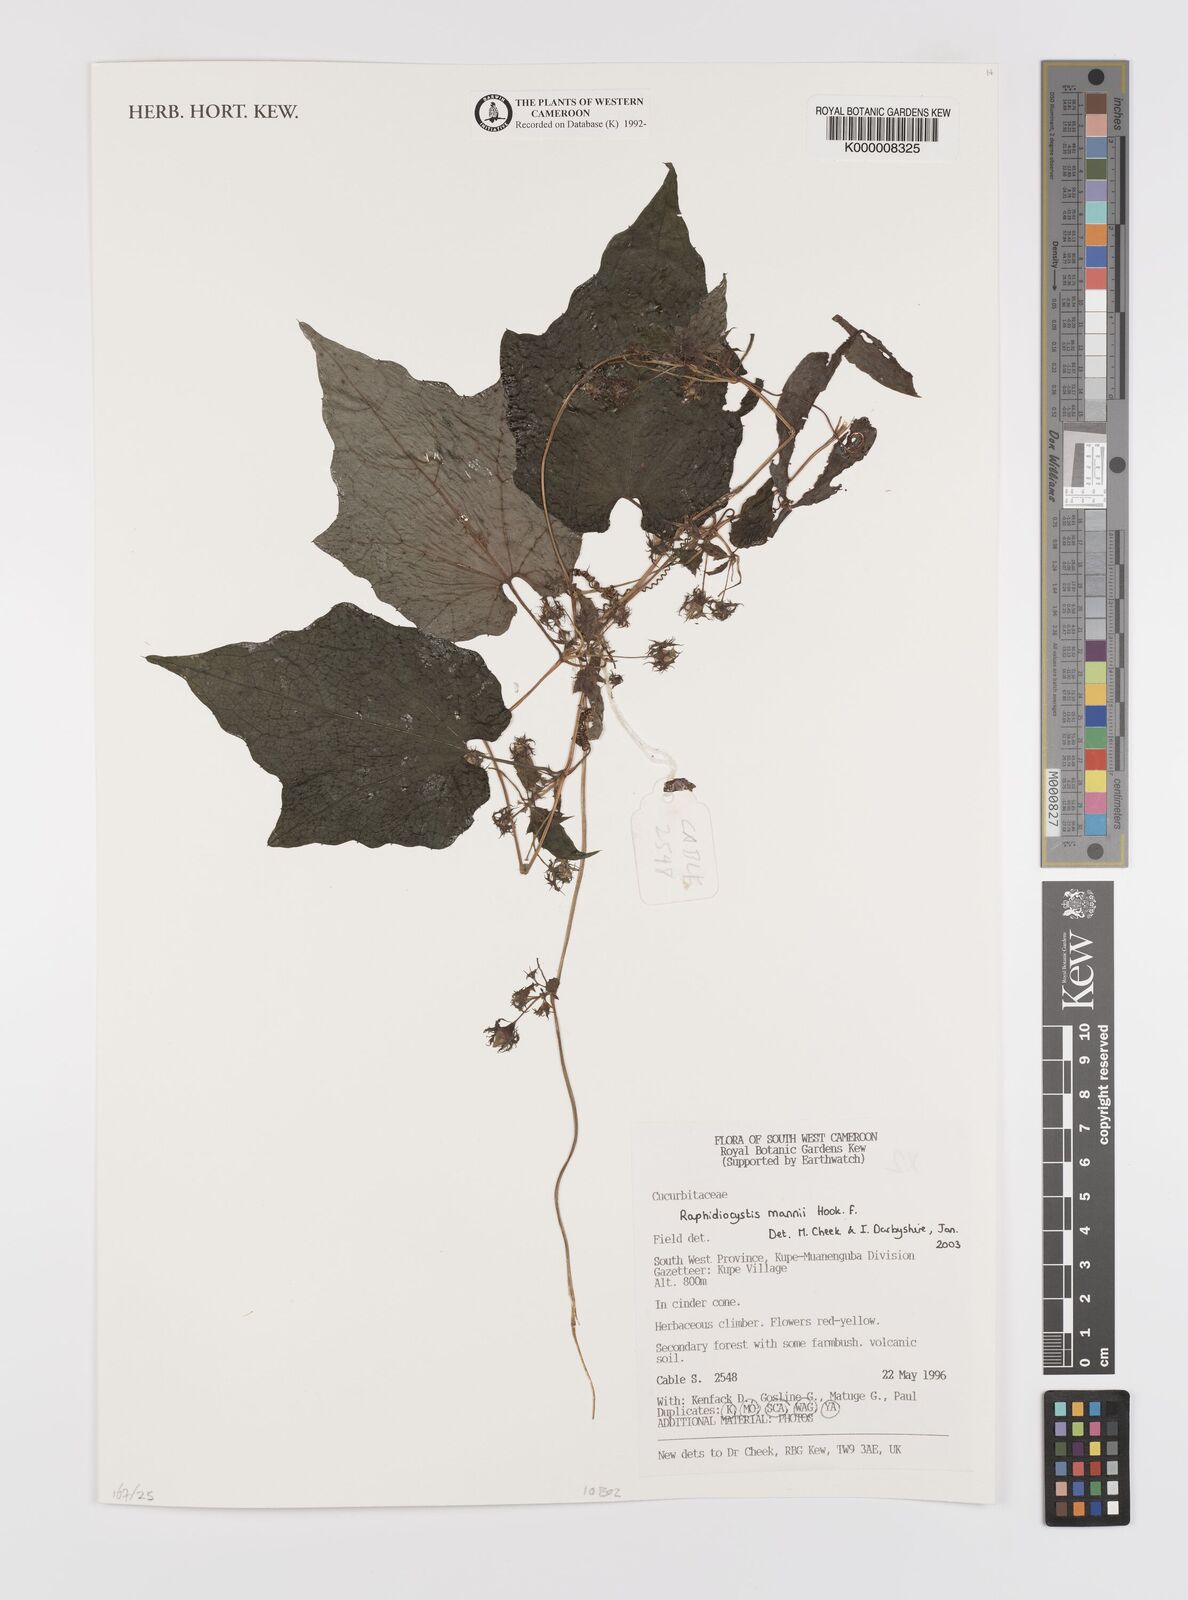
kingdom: Plantae
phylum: Tracheophyta
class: Magnoliopsida
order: Cucurbitales
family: Cucurbitaceae
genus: Raphidiocystis
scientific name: Raphidiocystis mannii
